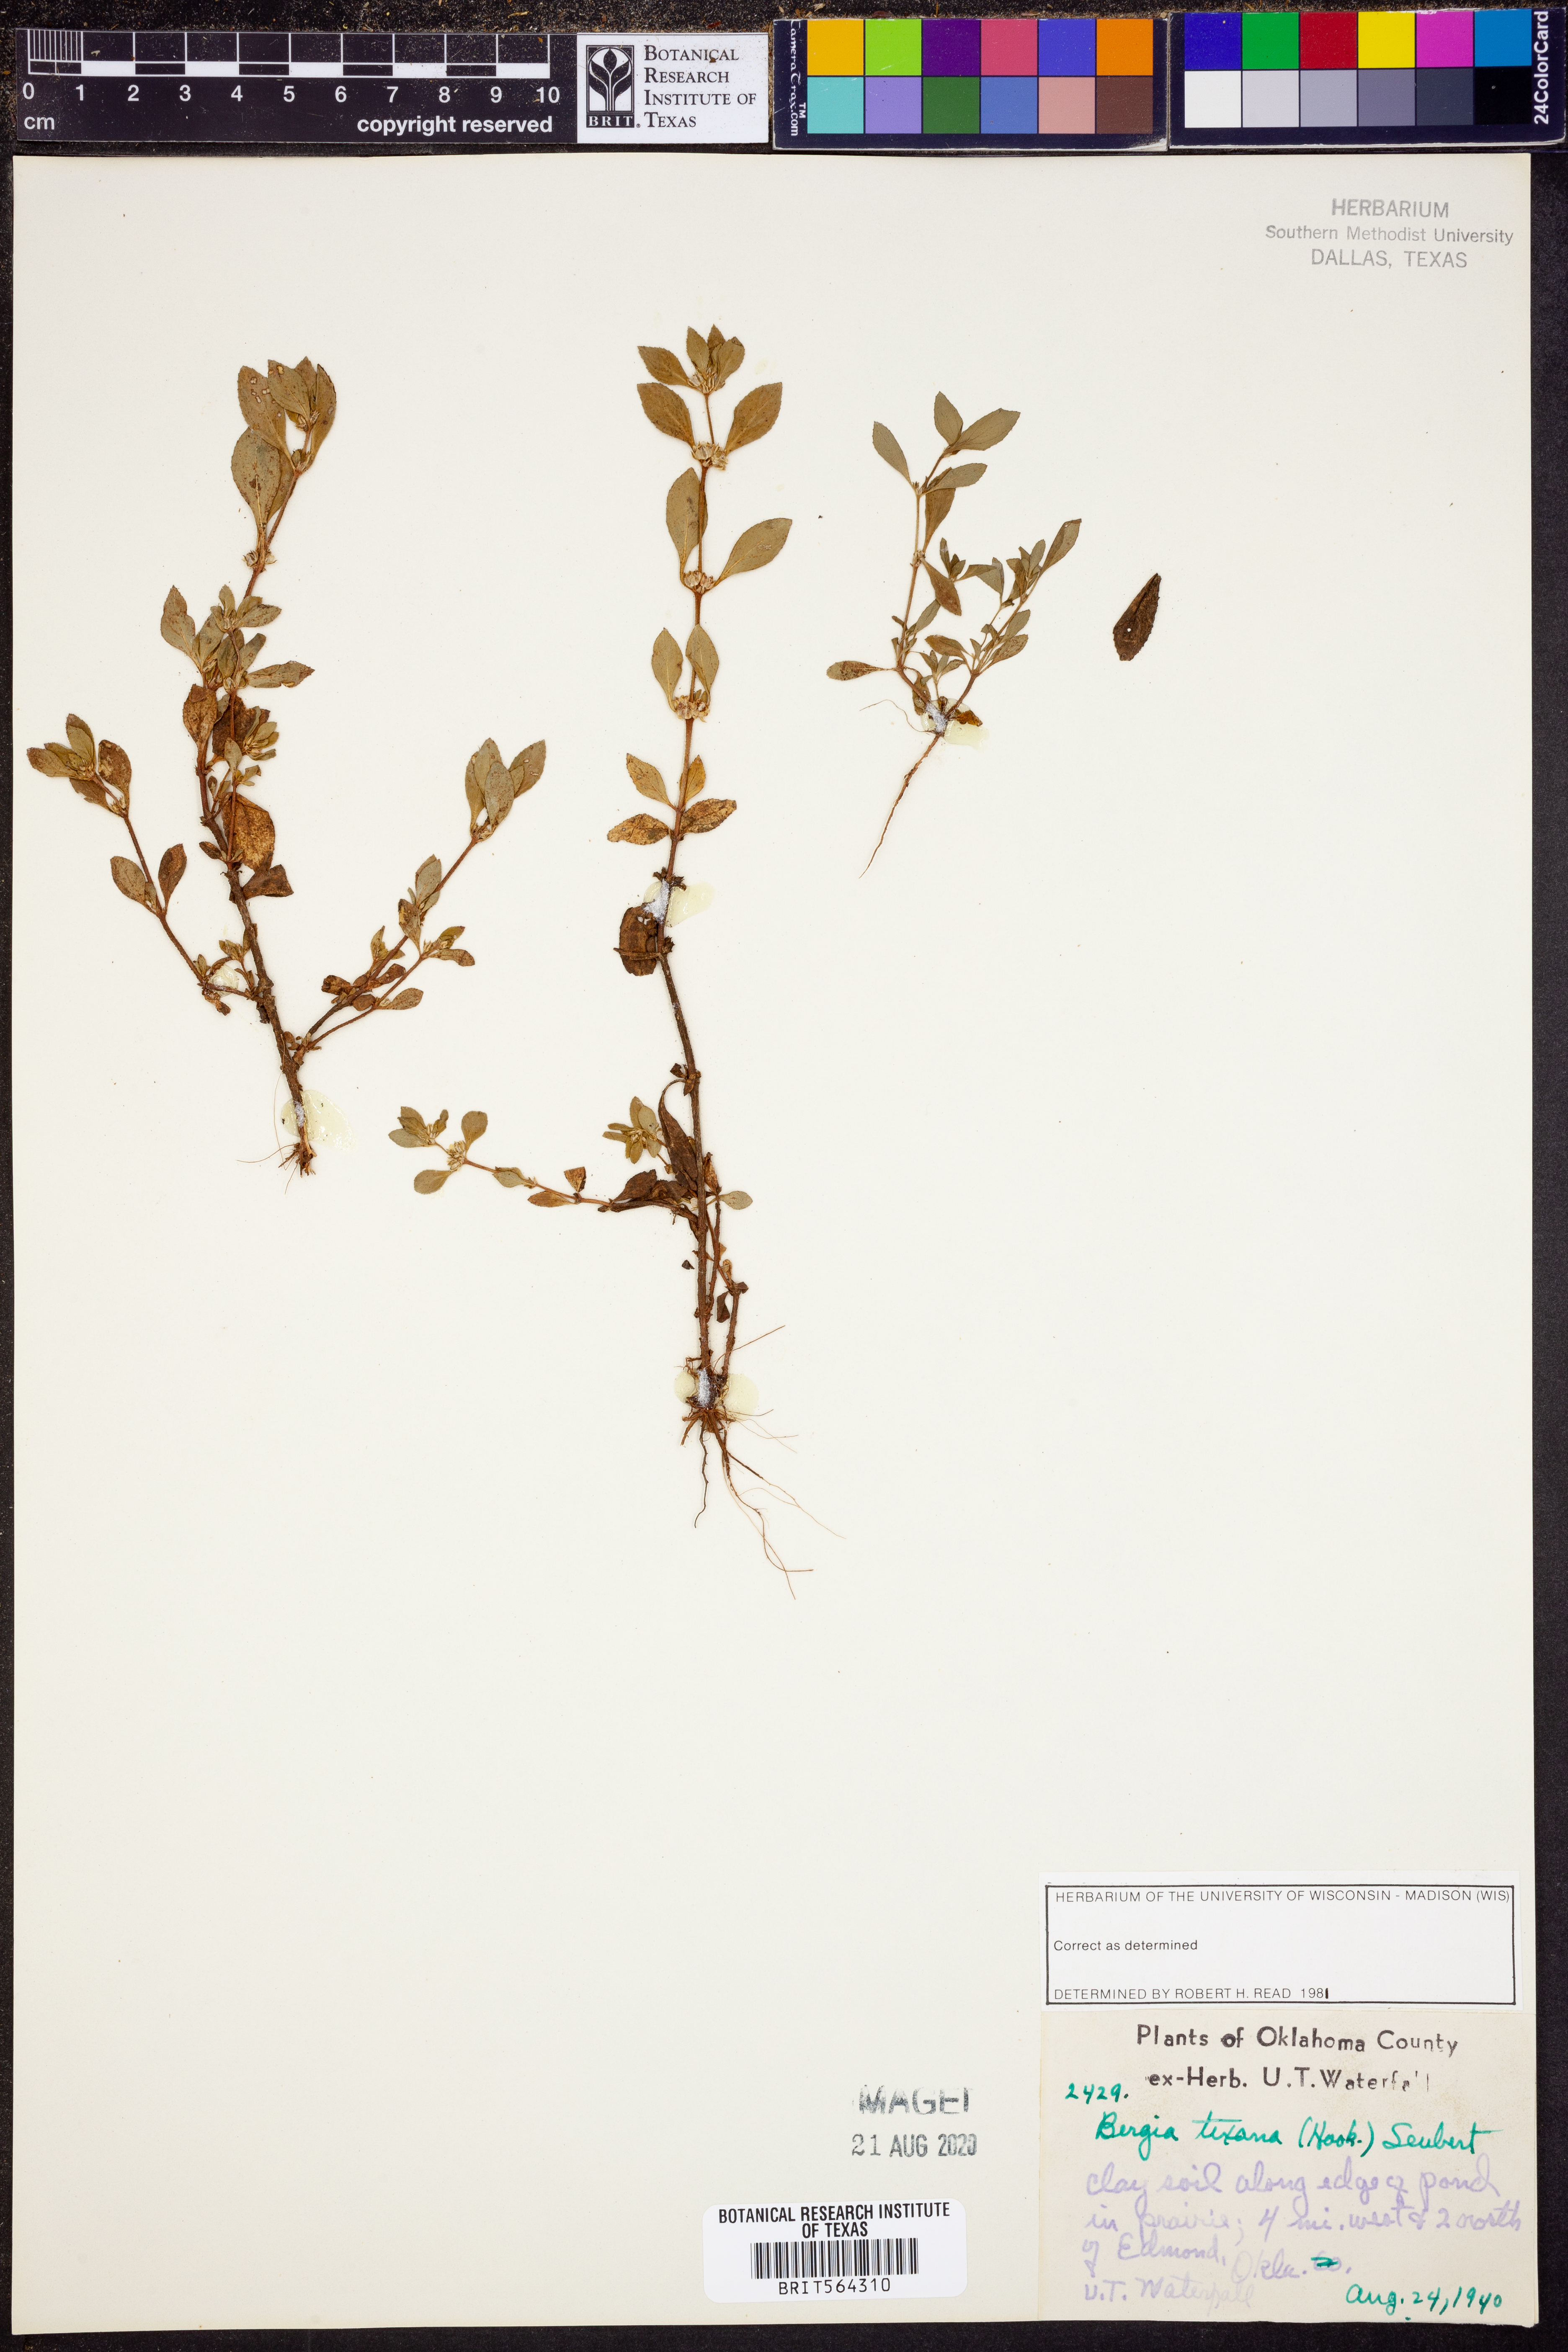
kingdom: Plantae
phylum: Tracheophyta
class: Magnoliopsida
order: Malpighiales
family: Elatinaceae
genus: Bergia
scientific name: Bergia texana
